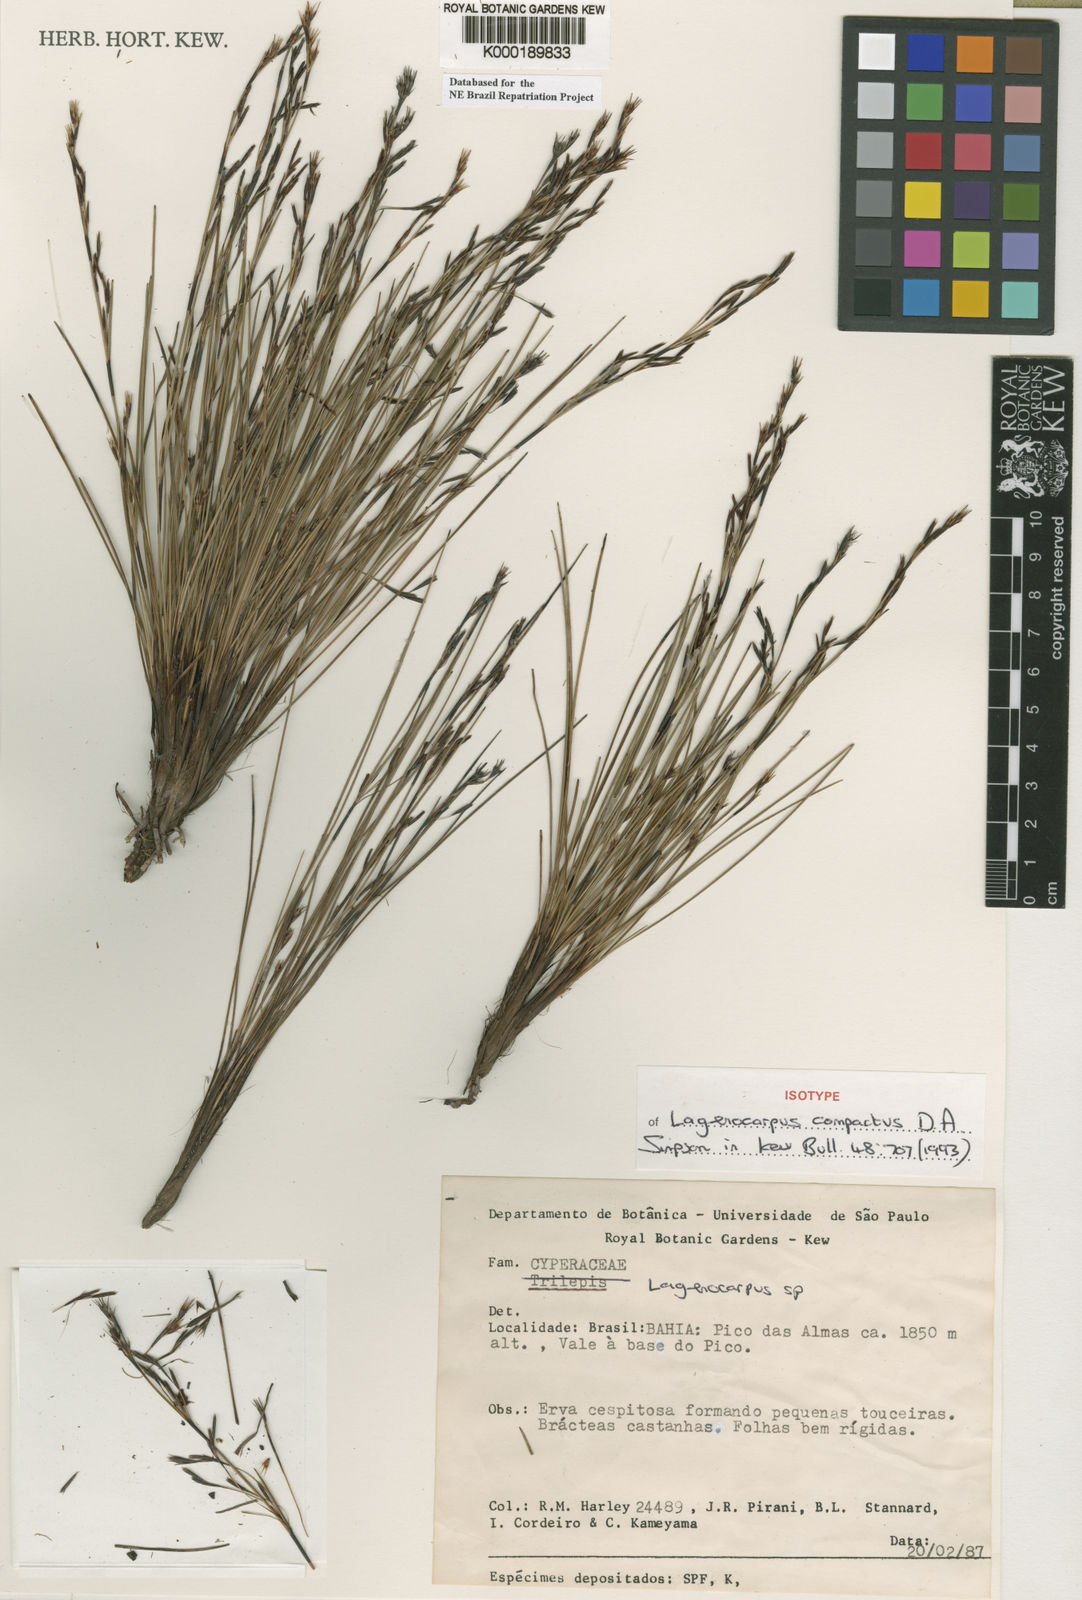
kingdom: Plantae
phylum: Tracheophyta
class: Liliopsida
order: Poales
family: Cyperaceae
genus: Lagenocarpus
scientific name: Lagenocarpus compactus
